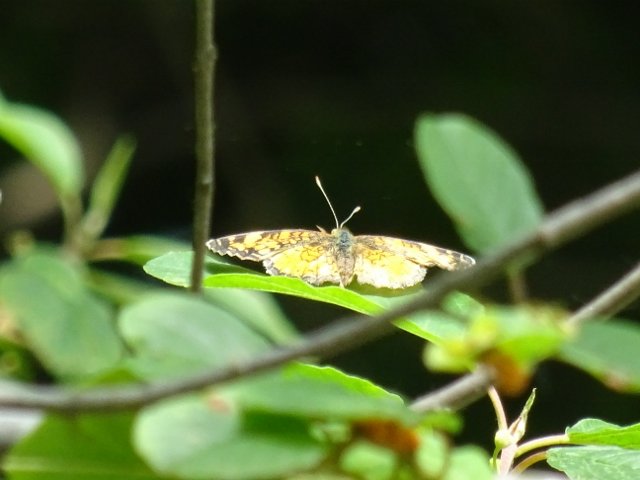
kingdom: Animalia
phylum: Arthropoda
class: Insecta
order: Lepidoptera
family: Nymphalidae
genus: Phyciodes
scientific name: Phyciodes tharos
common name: Northern Crescent
